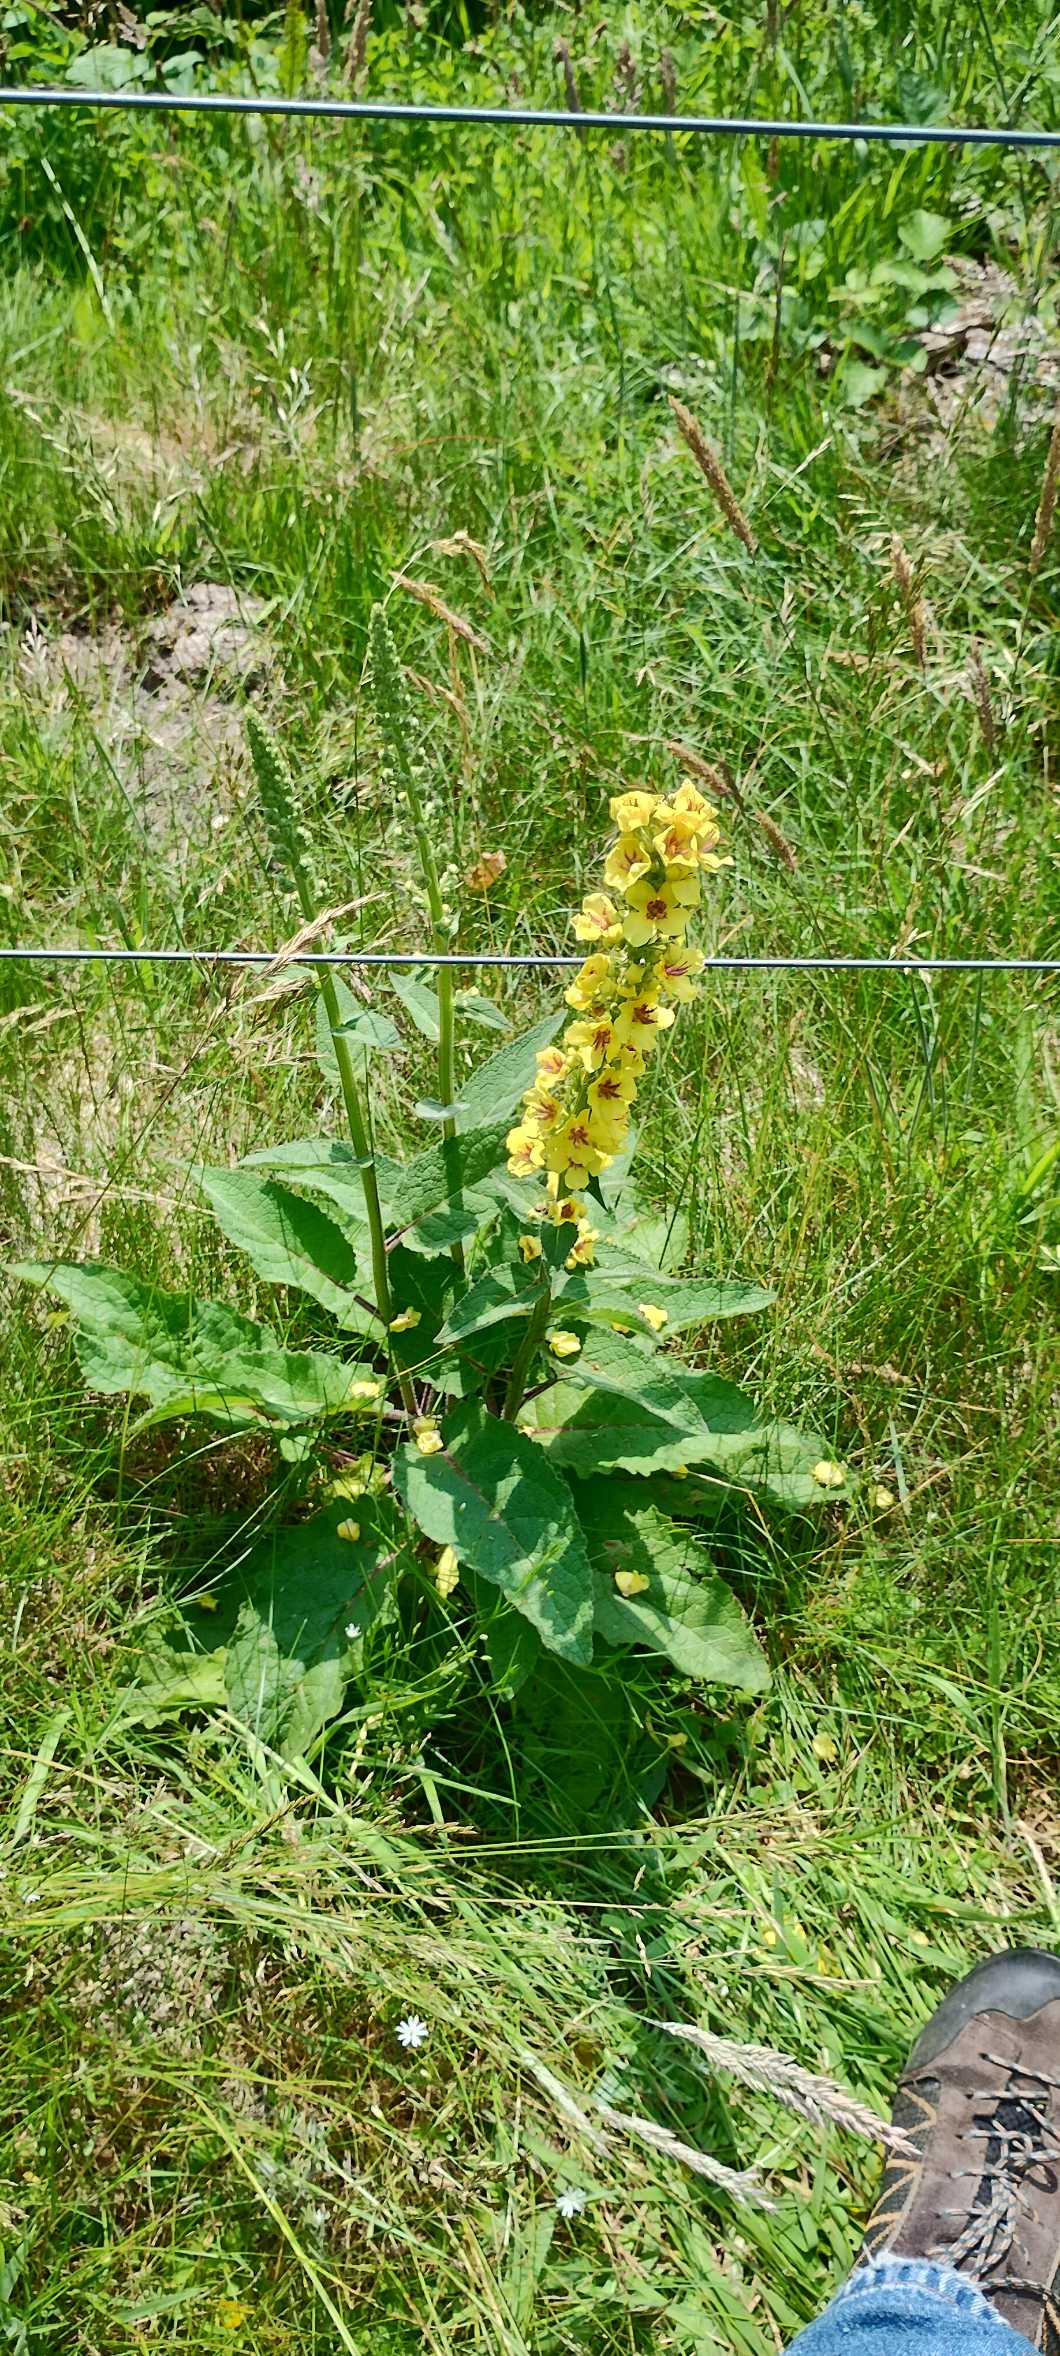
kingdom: Plantae
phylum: Tracheophyta
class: Magnoliopsida
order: Lamiales
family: Scrophulariaceae
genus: Verbascum
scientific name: Verbascum nigrum
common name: Mørk kongelys
